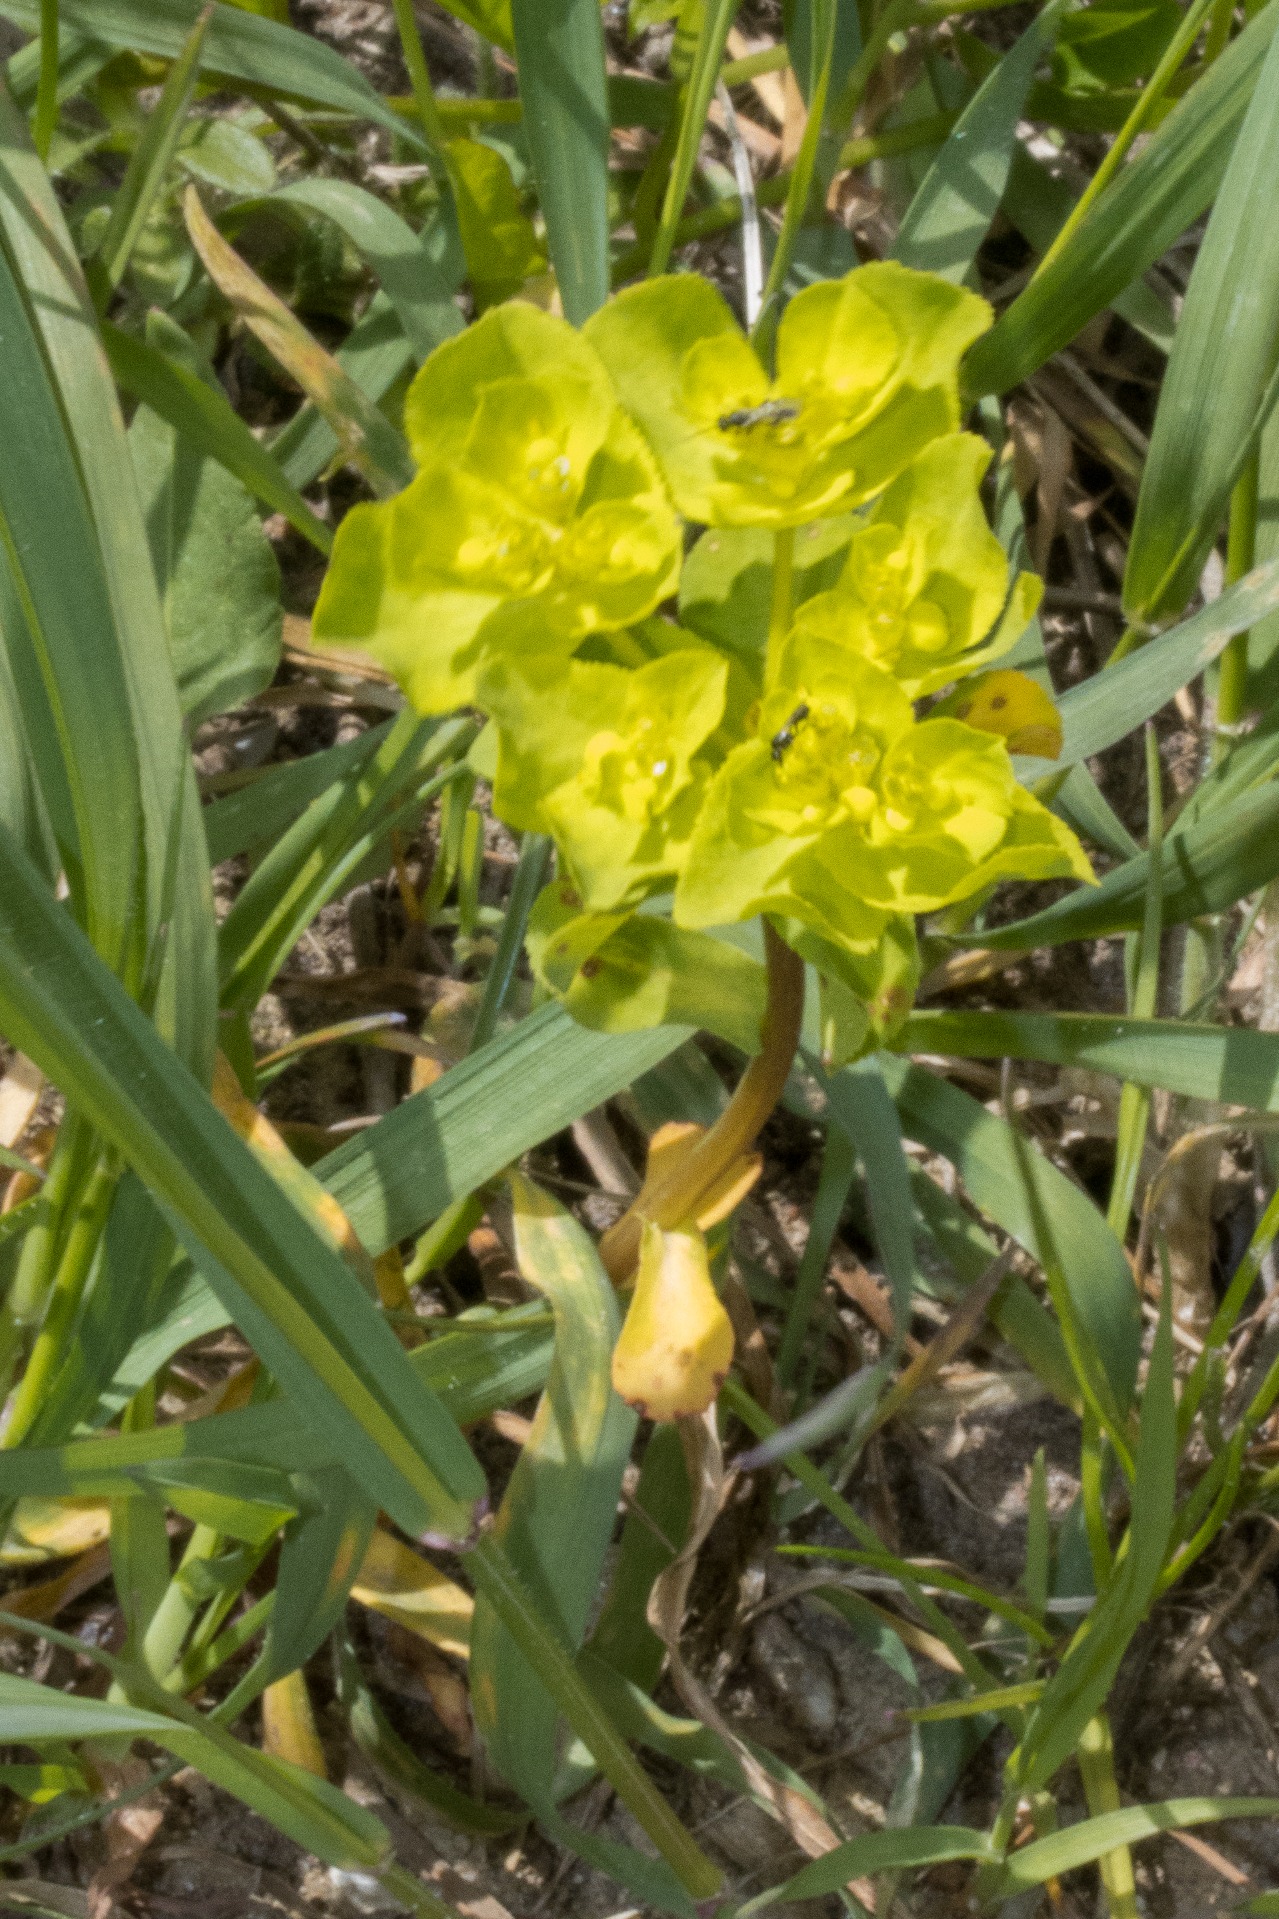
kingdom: Plantae
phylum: Tracheophyta
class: Magnoliopsida
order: Malpighiales
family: Euphorbiaceae
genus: Euphorbia
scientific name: Euphorbia helioscopia
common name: Skærm-vortemælk
